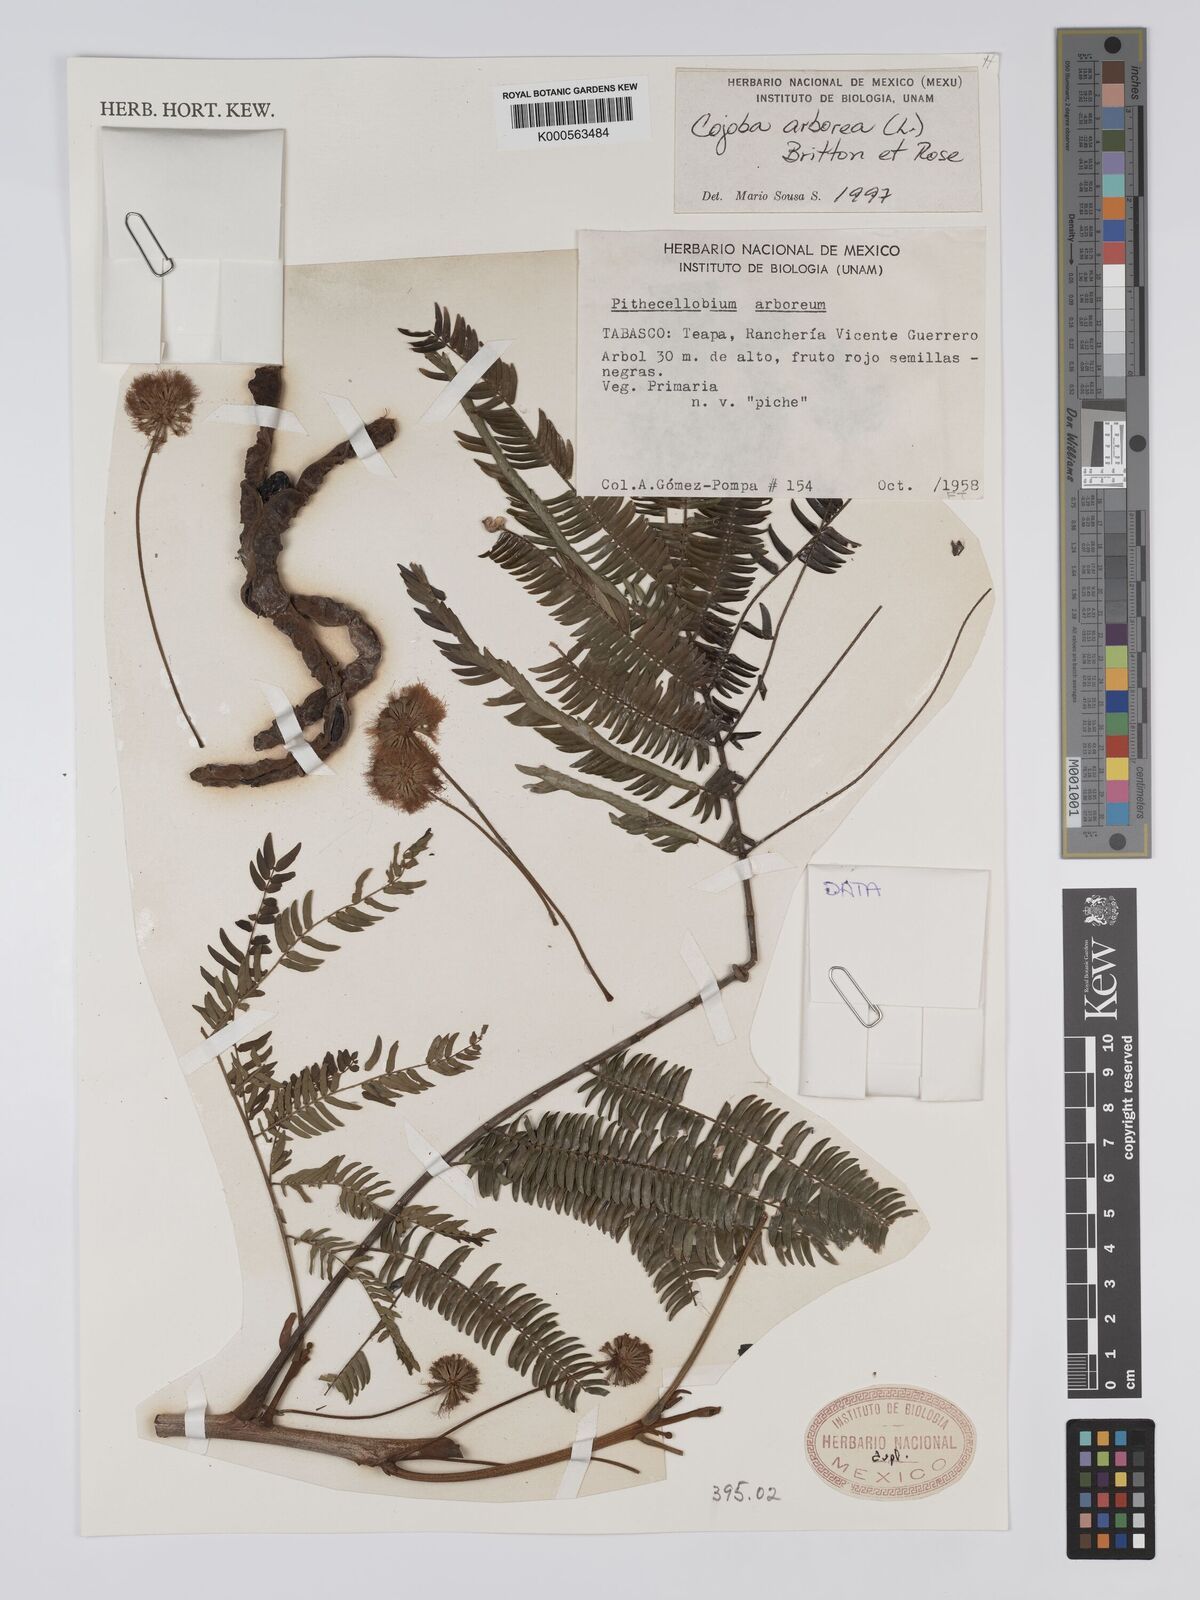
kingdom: Plantae
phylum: Tracheophyta
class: Magnoliopsida
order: Fabales
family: Fabaceae
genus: Cojoba
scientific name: Cojoba arborea
